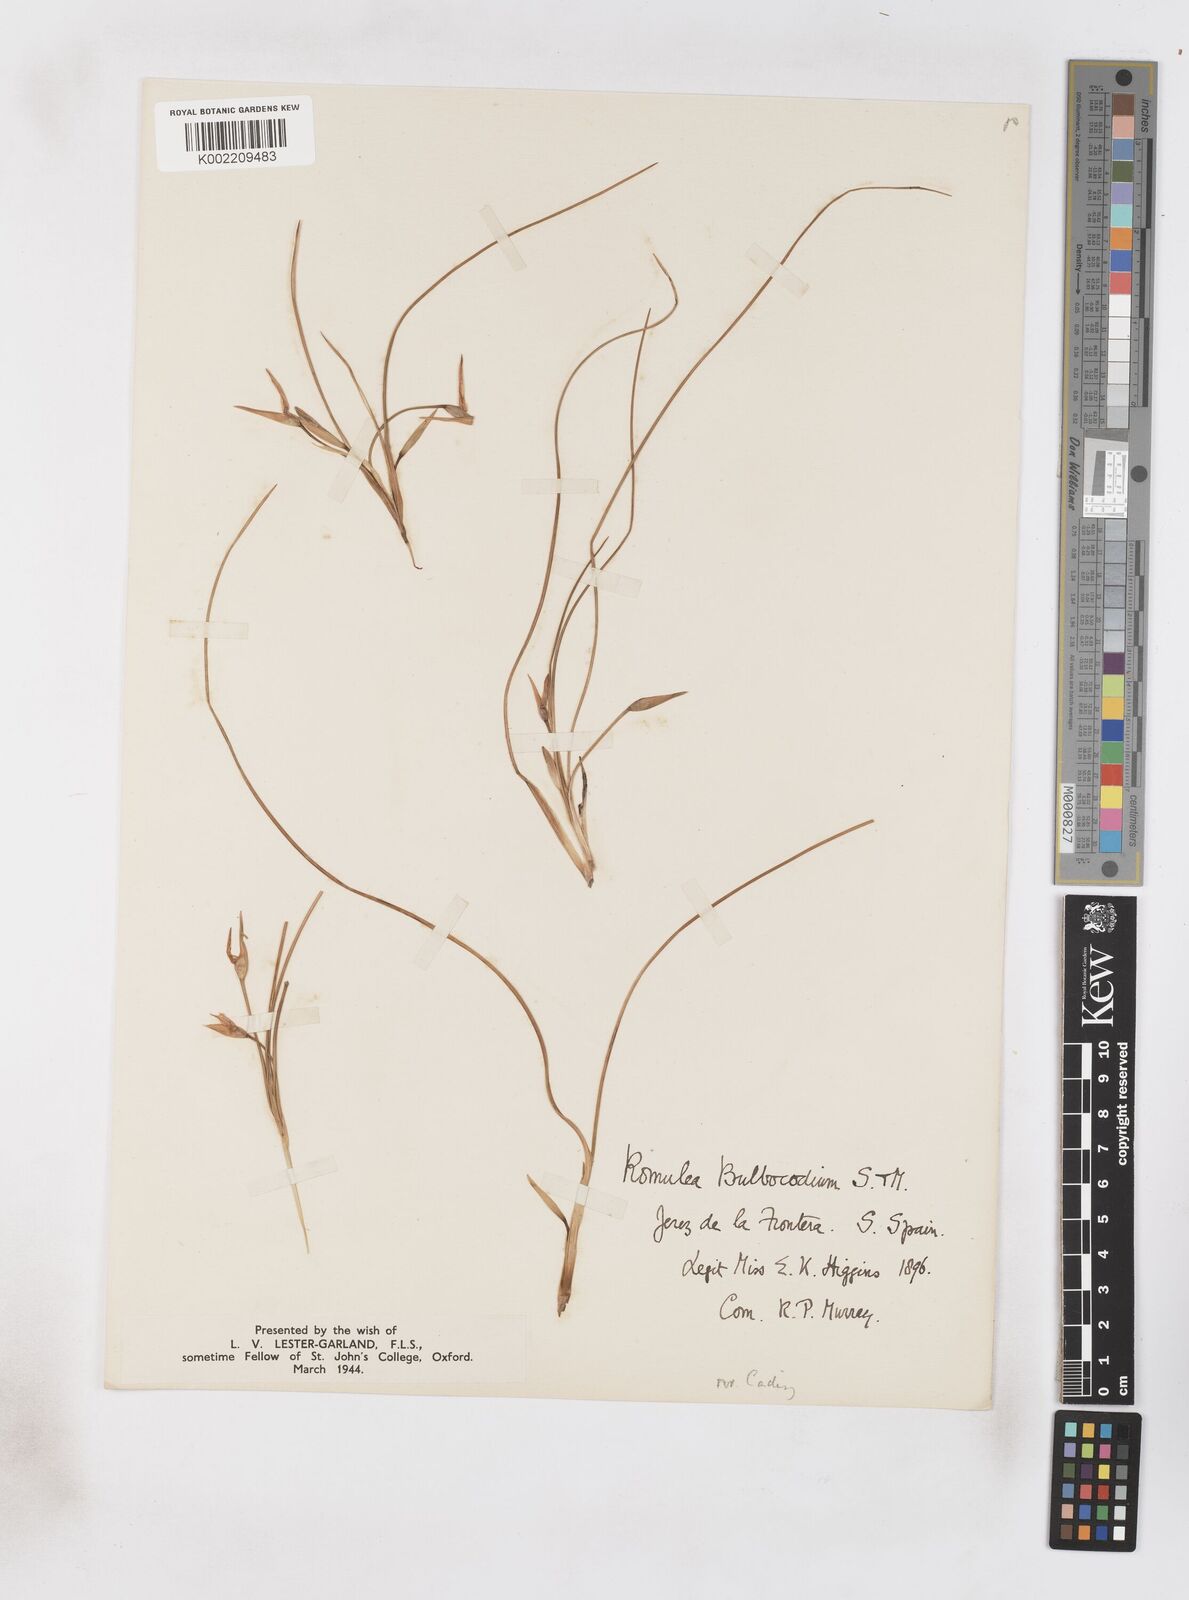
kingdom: Plantae
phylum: Tracheophyta
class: Liliopsida
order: Asparagales
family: Iridaceae
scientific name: Iridaceae
